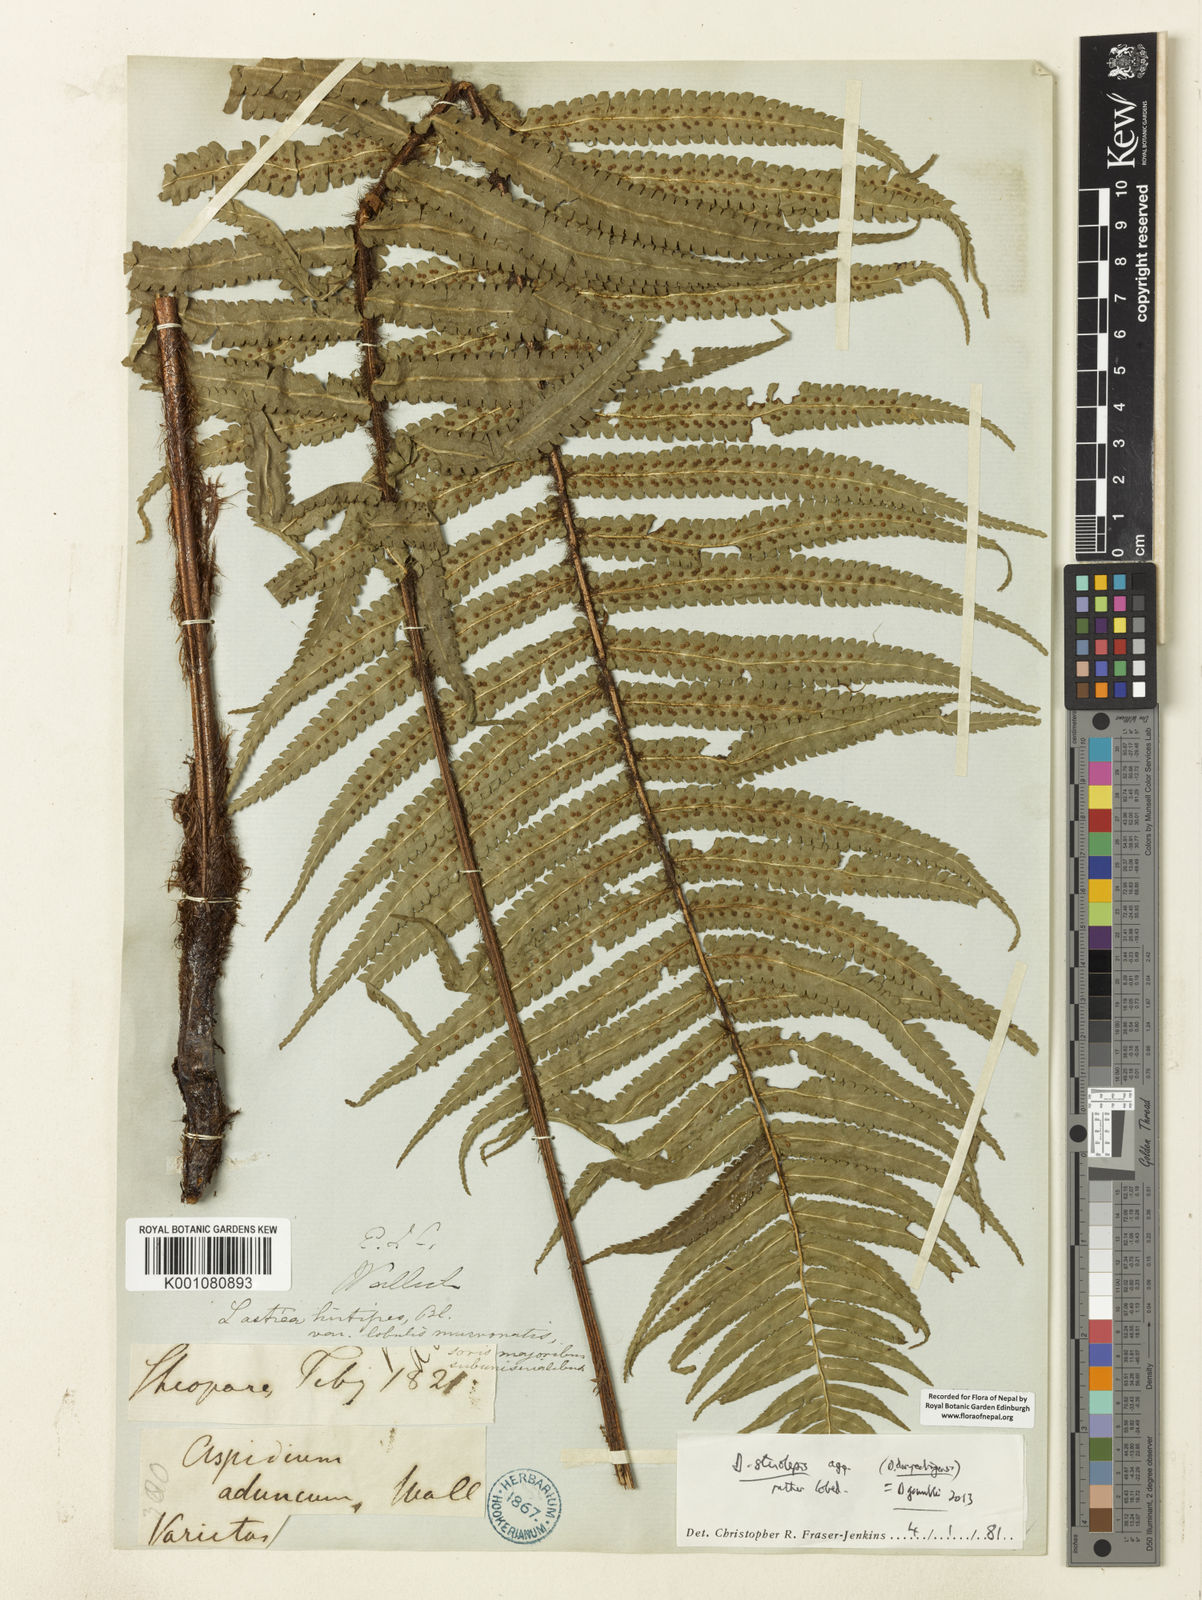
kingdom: Plantae
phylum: Tracheophyta
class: Polypodiopsida
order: Polypodiales
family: Dryopteridaceae
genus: Dryopteris
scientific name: Dryopteris stenolepis
